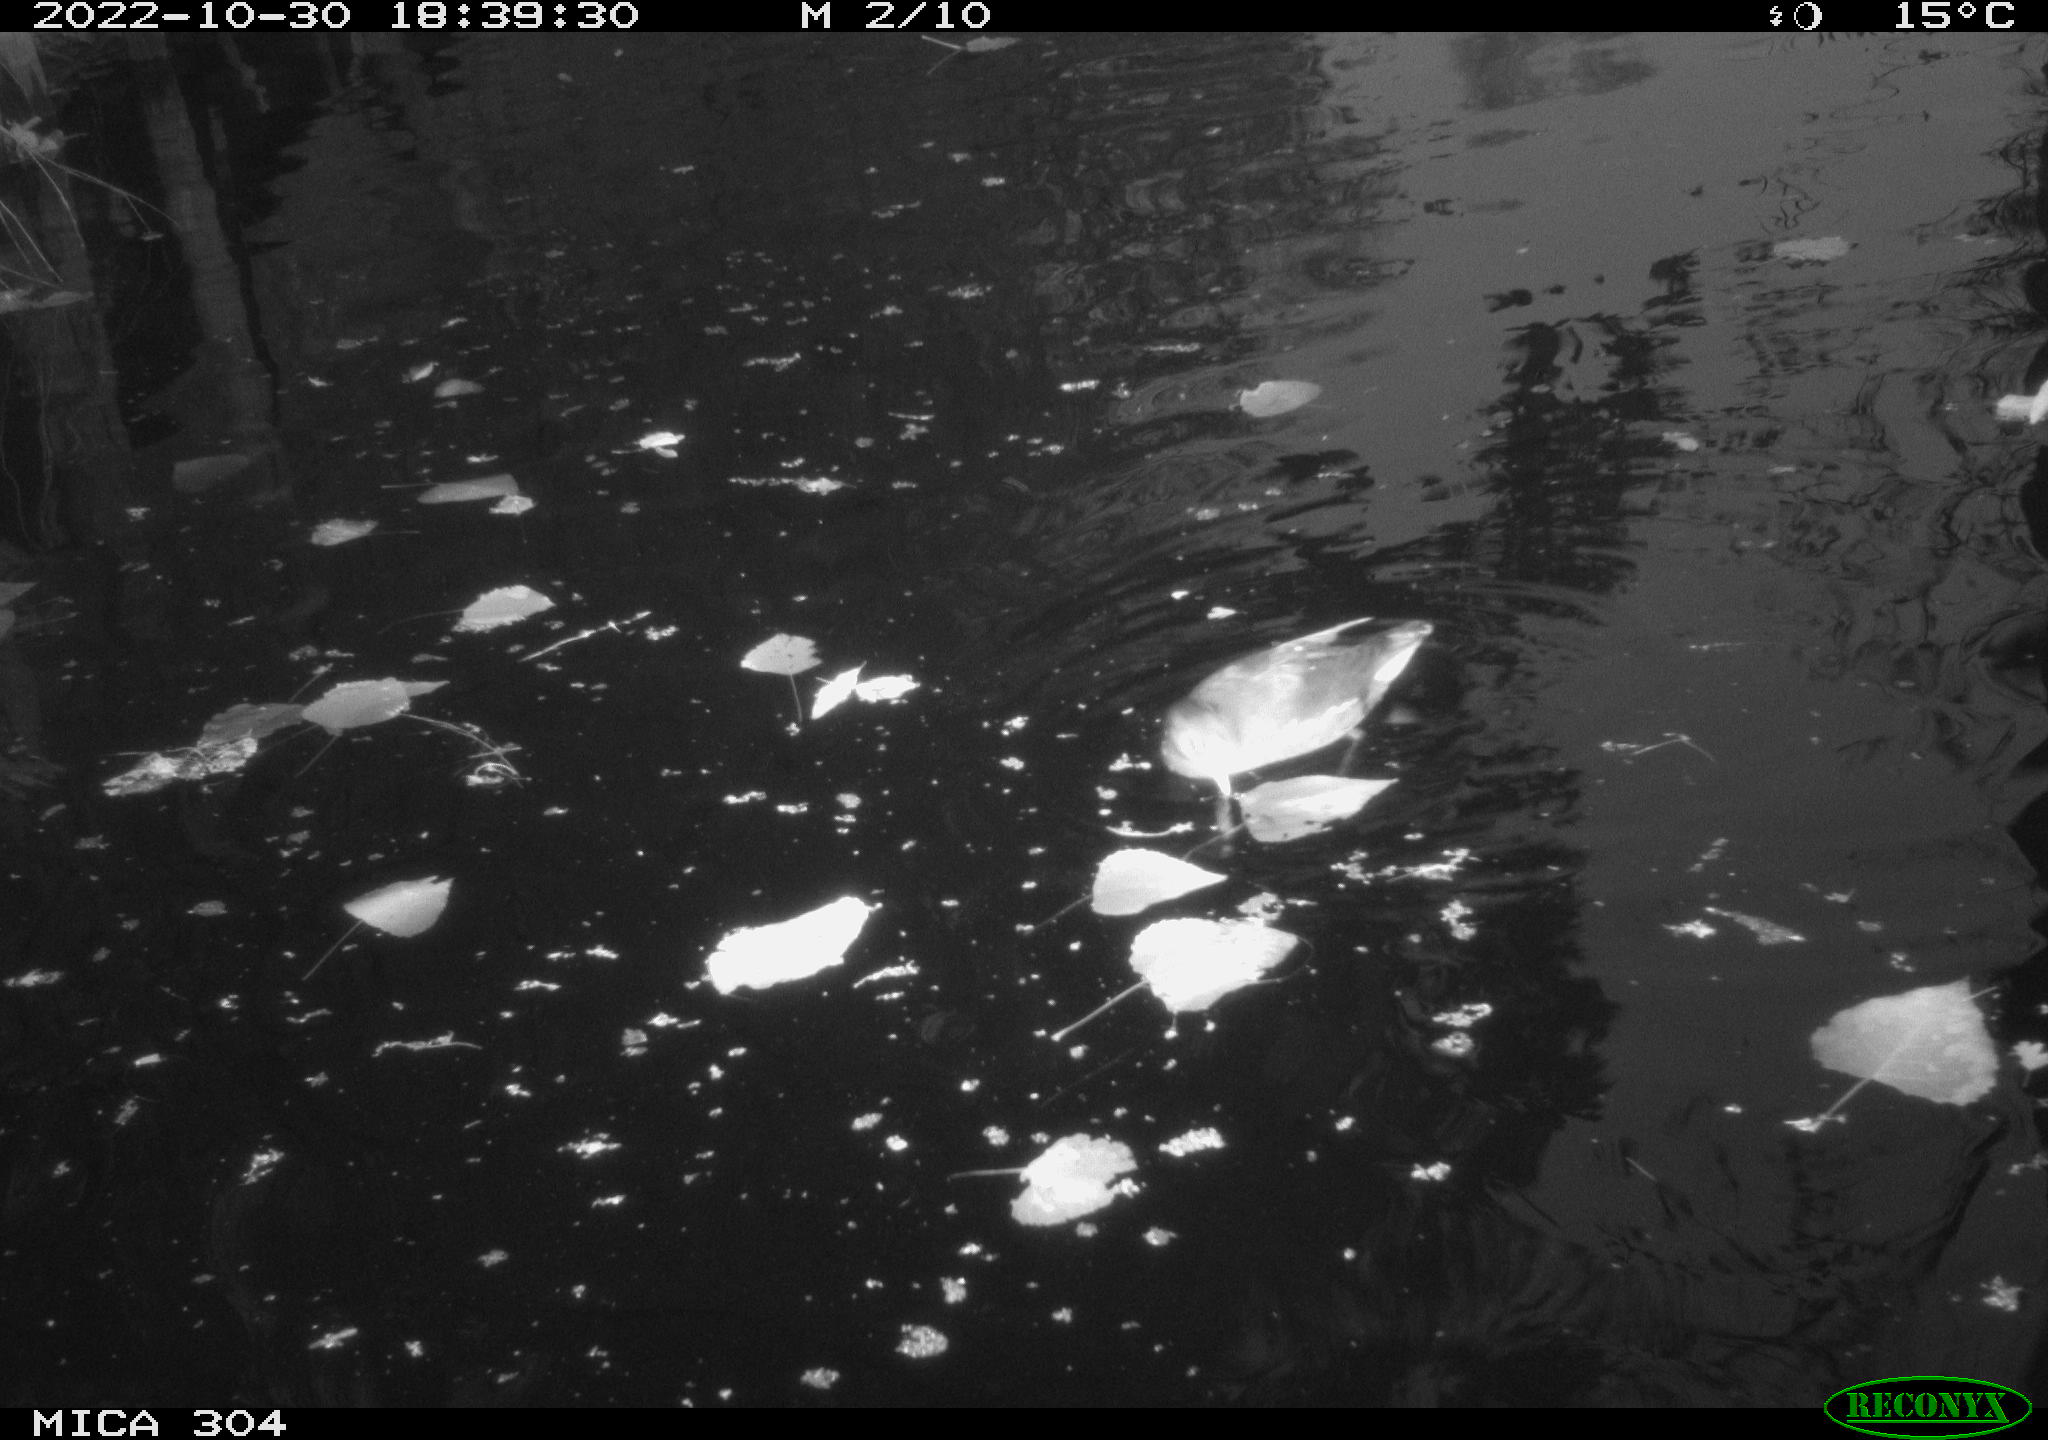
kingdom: Animalia
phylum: Chordata
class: Aves
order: Anseriformes
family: Anatidae
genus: Anas
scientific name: Anas
